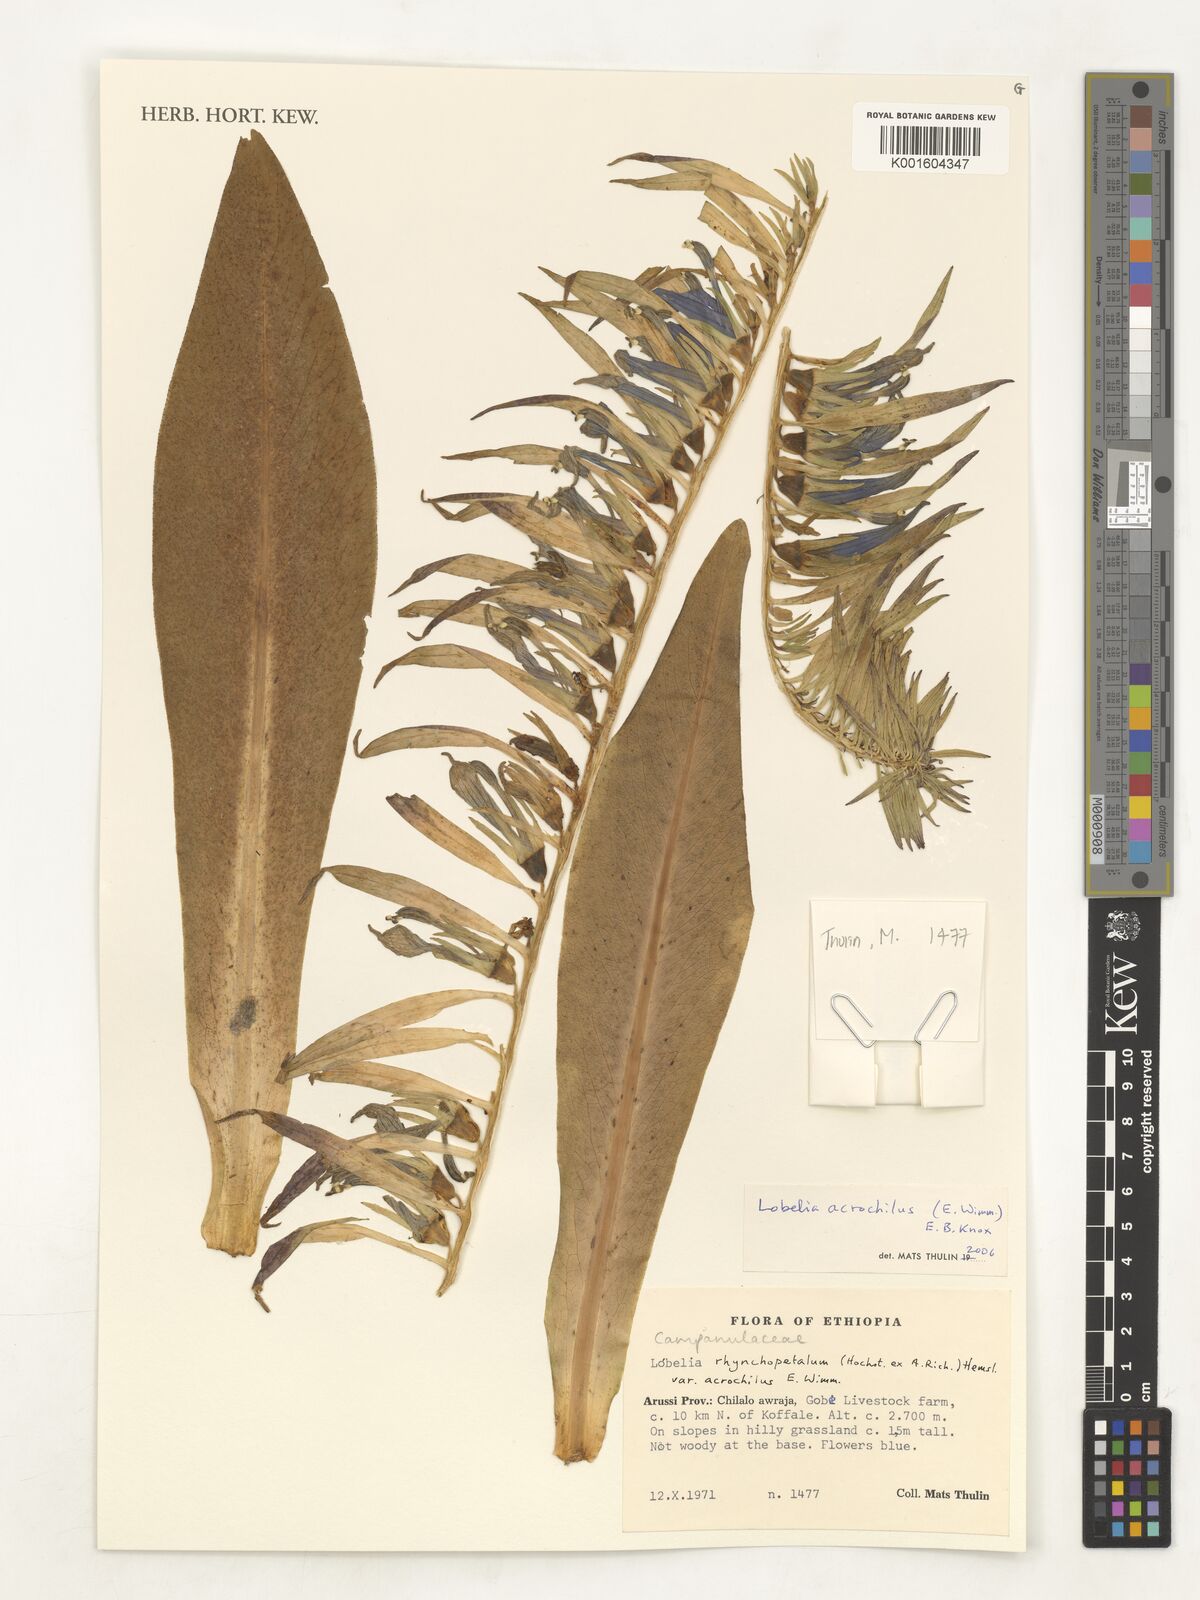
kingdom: Plantae
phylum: Tracheophyta
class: Magnoliopsida
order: Asterales
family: Campanulaceae
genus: Lobelia
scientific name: Lobelia acrochila
